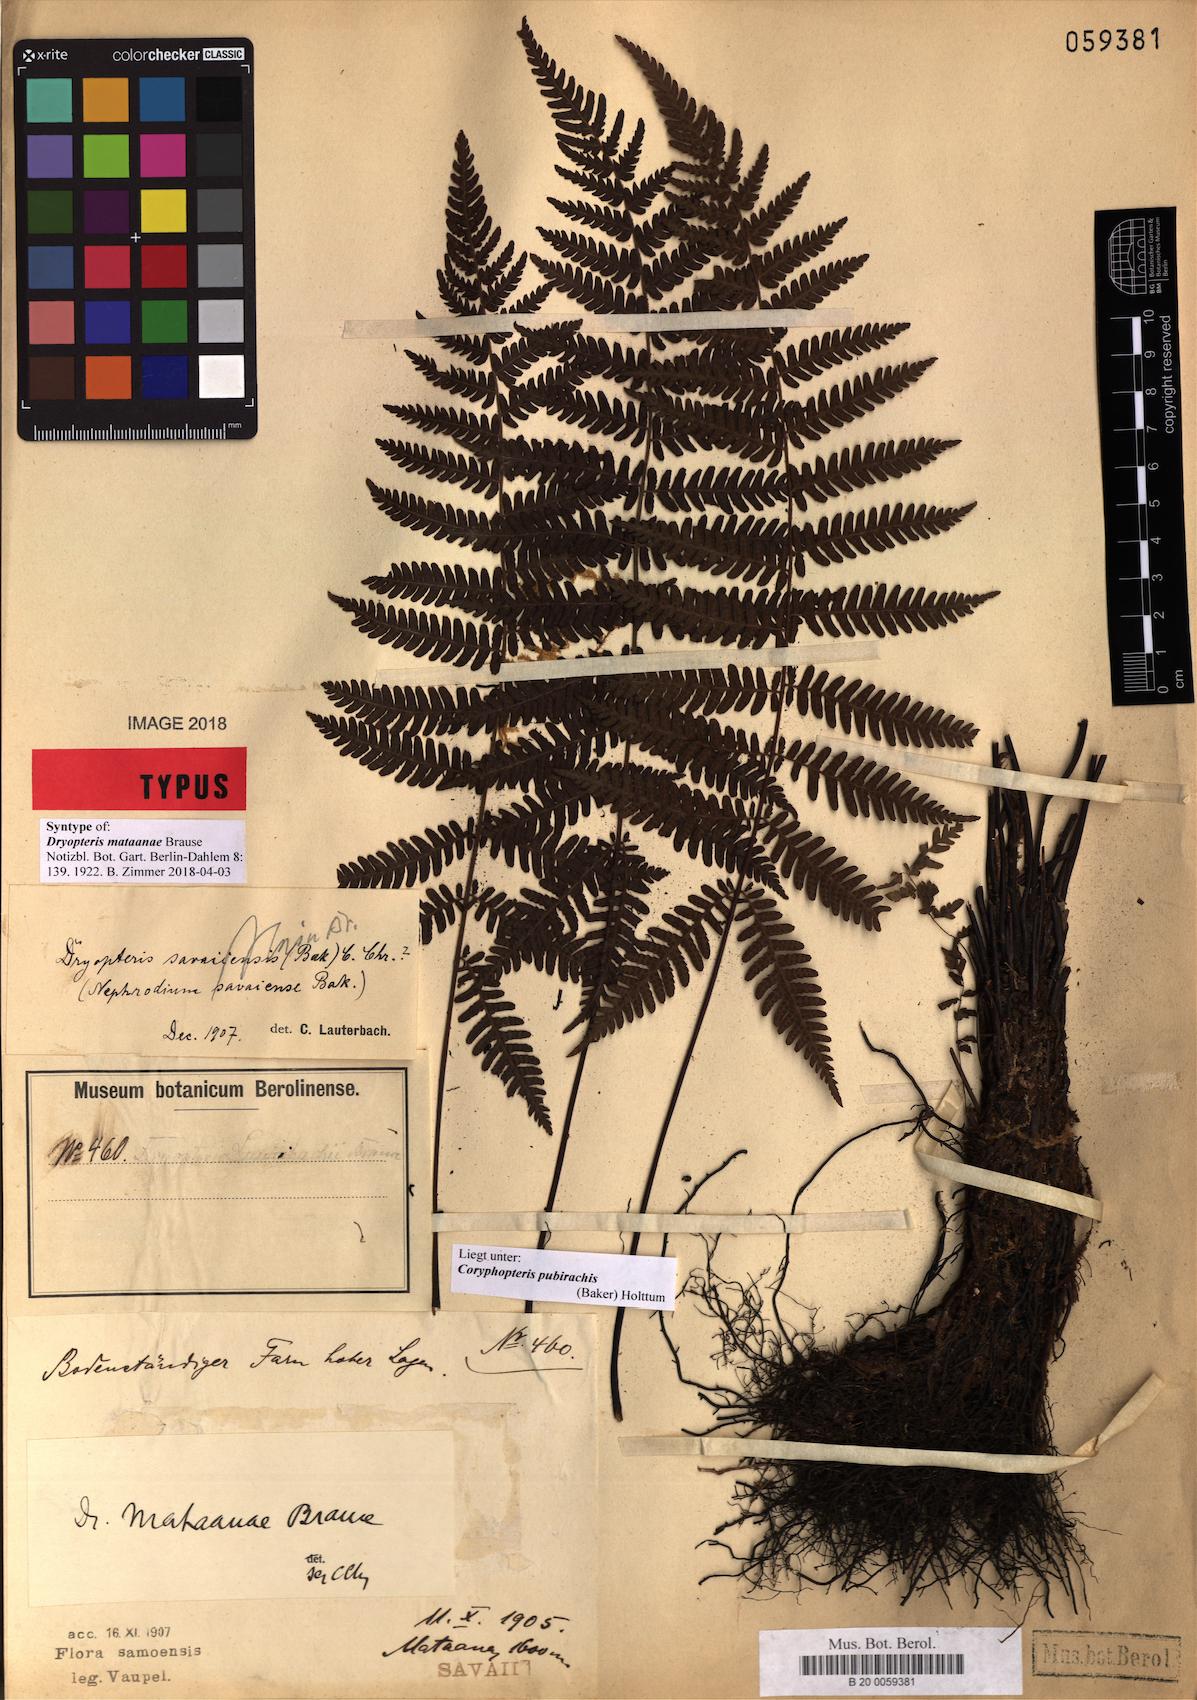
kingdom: Plantae
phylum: Tracheophyta
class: Polypodiopsida
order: Polypodiales
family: Thelypteridaceae
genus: Coryphopteris
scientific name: Coryphopteris pubirachis
